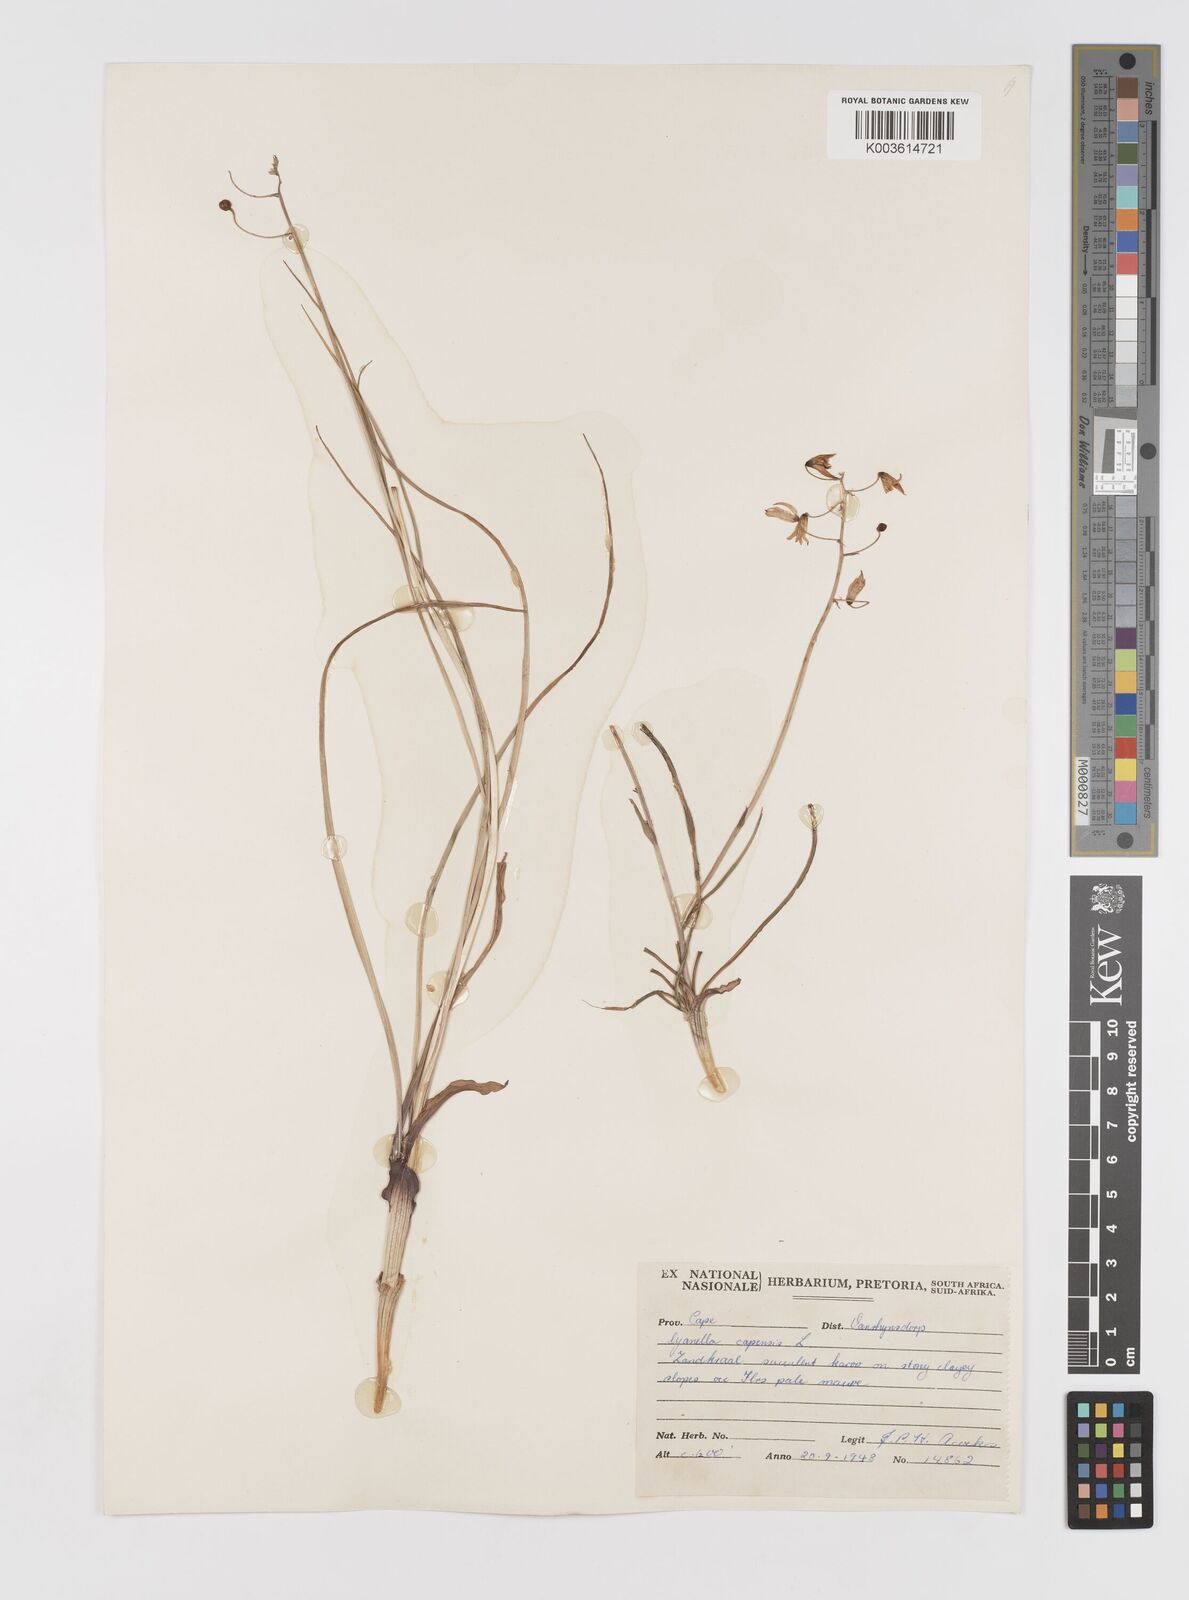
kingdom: Plantae
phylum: Tracheophyta
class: Liliopsida
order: Asparagales
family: Tecophilaeaceae
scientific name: Tecophilaeaceae
